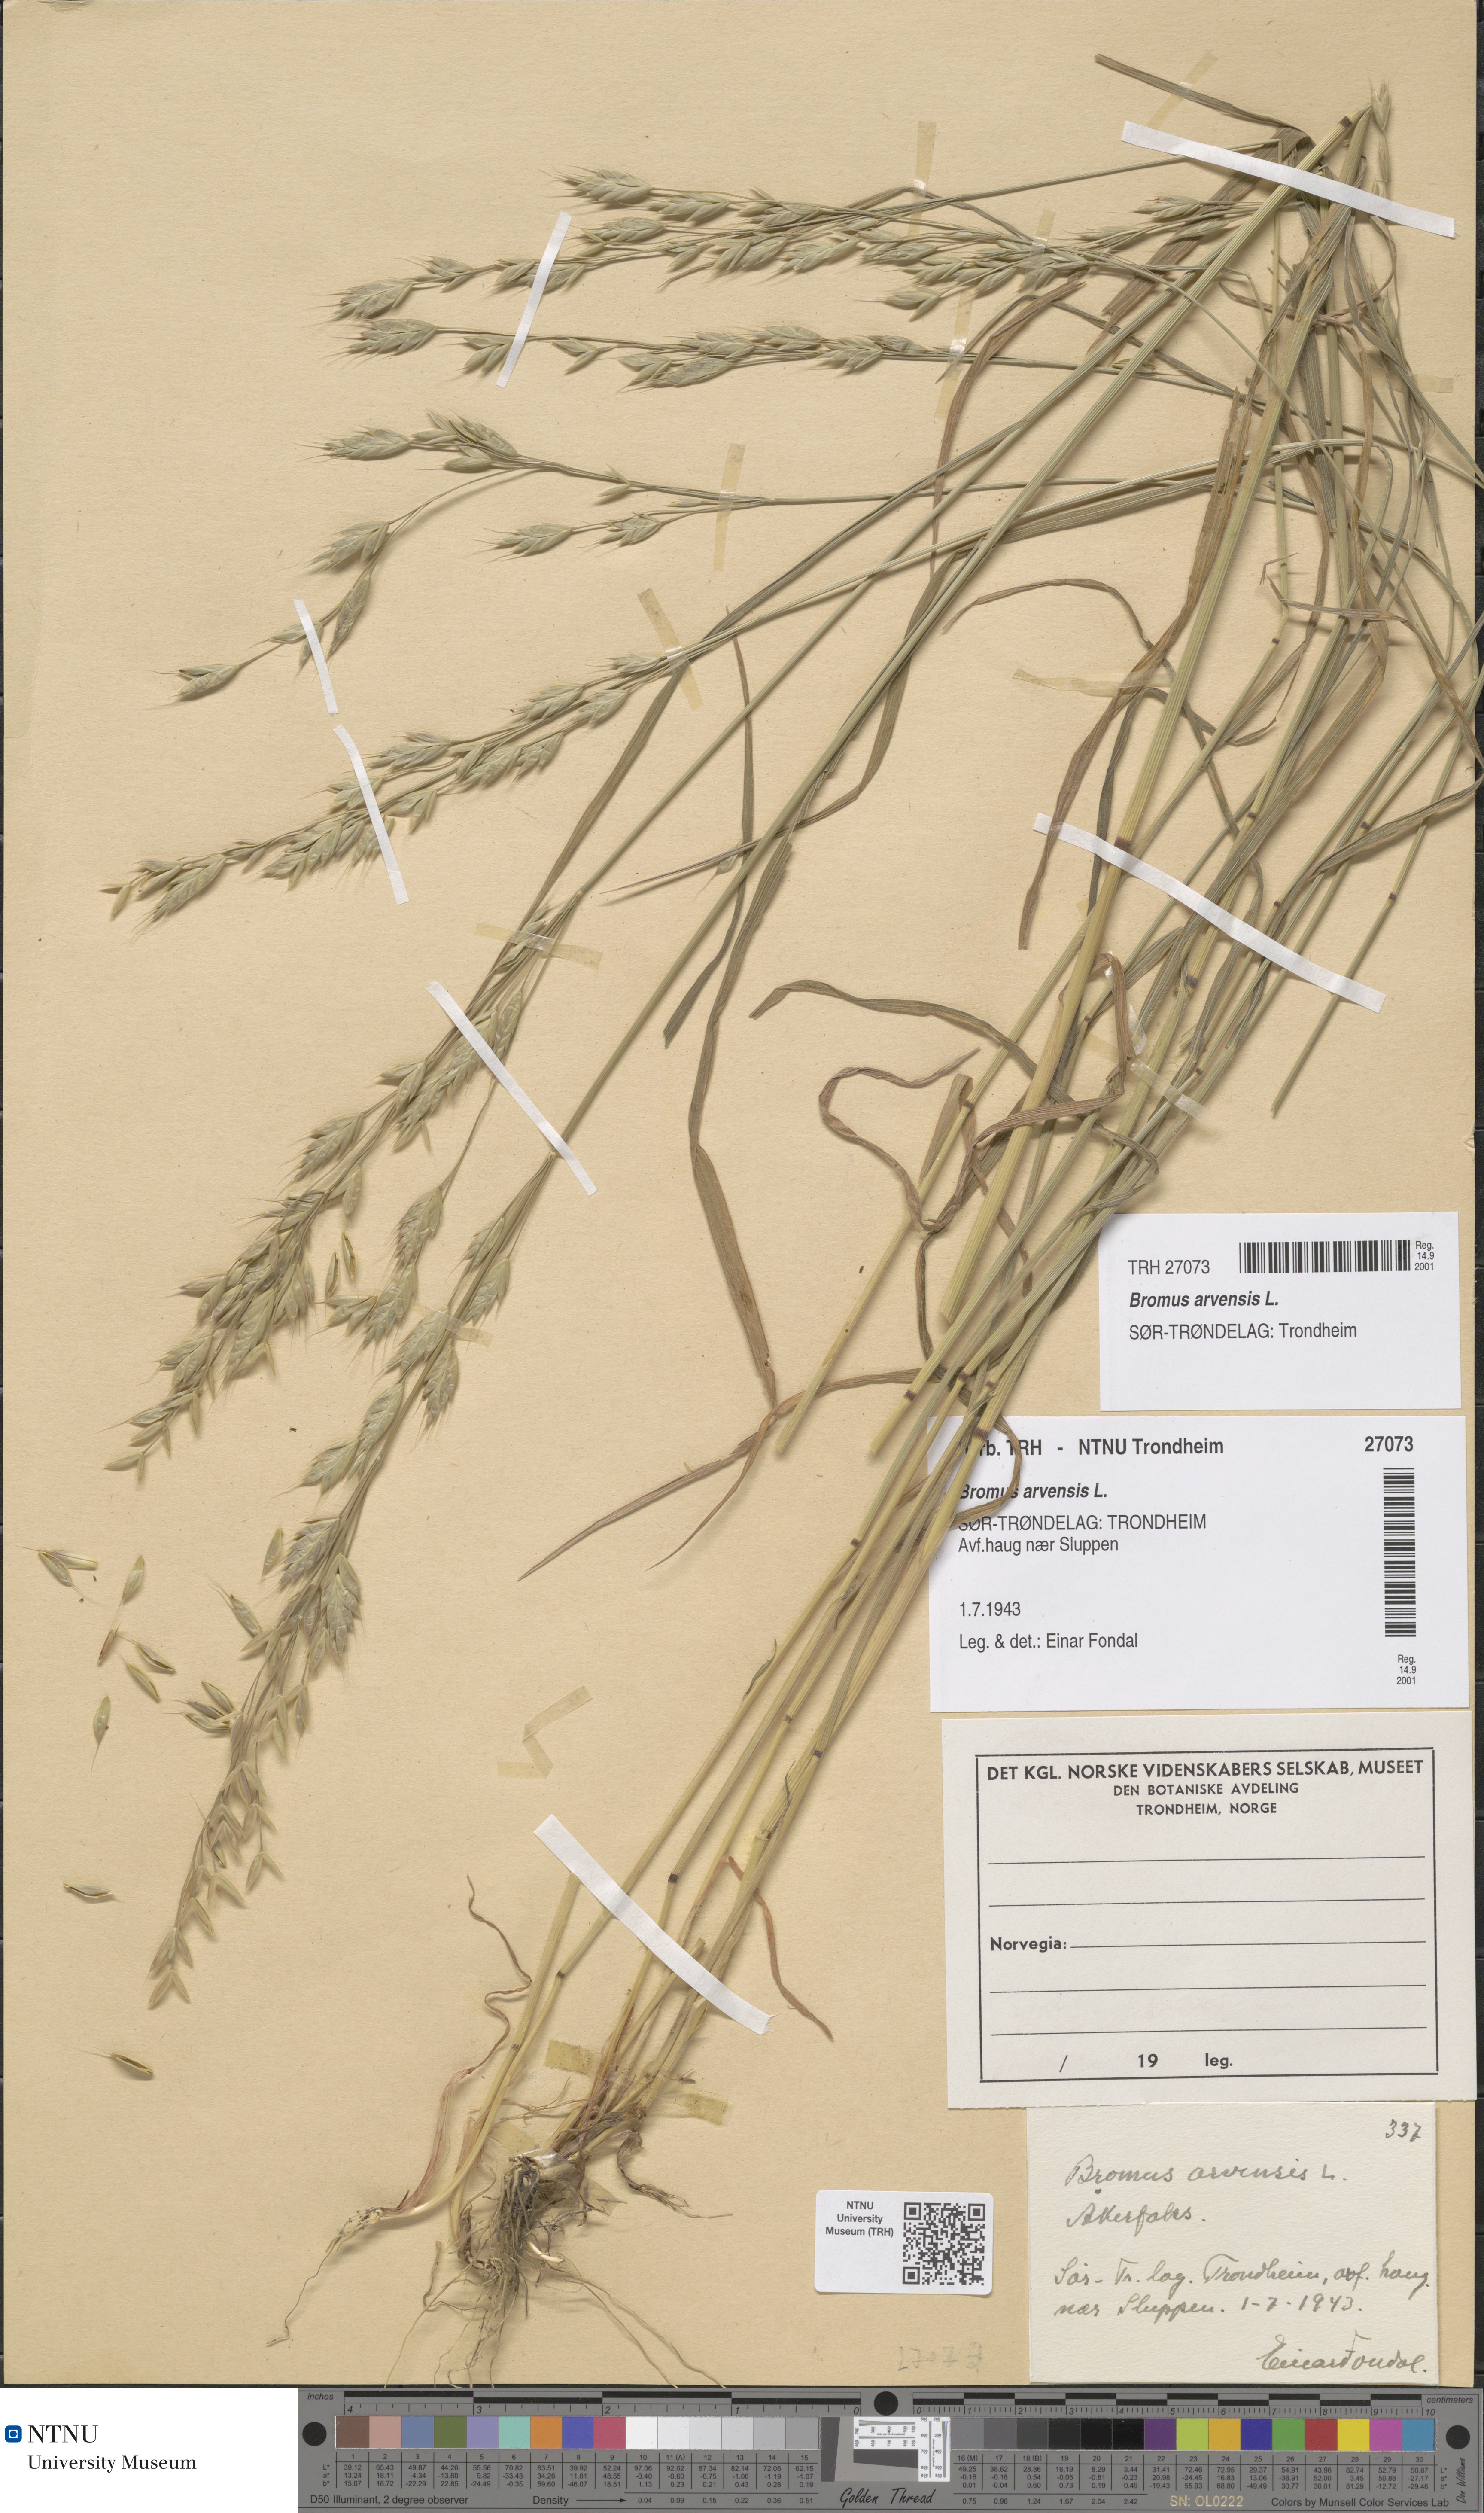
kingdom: Plantae
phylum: Tracheophyta
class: Liliopsida
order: Poales
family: Poaceae
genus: Bromus
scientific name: Bromus arvensis
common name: Field brome
